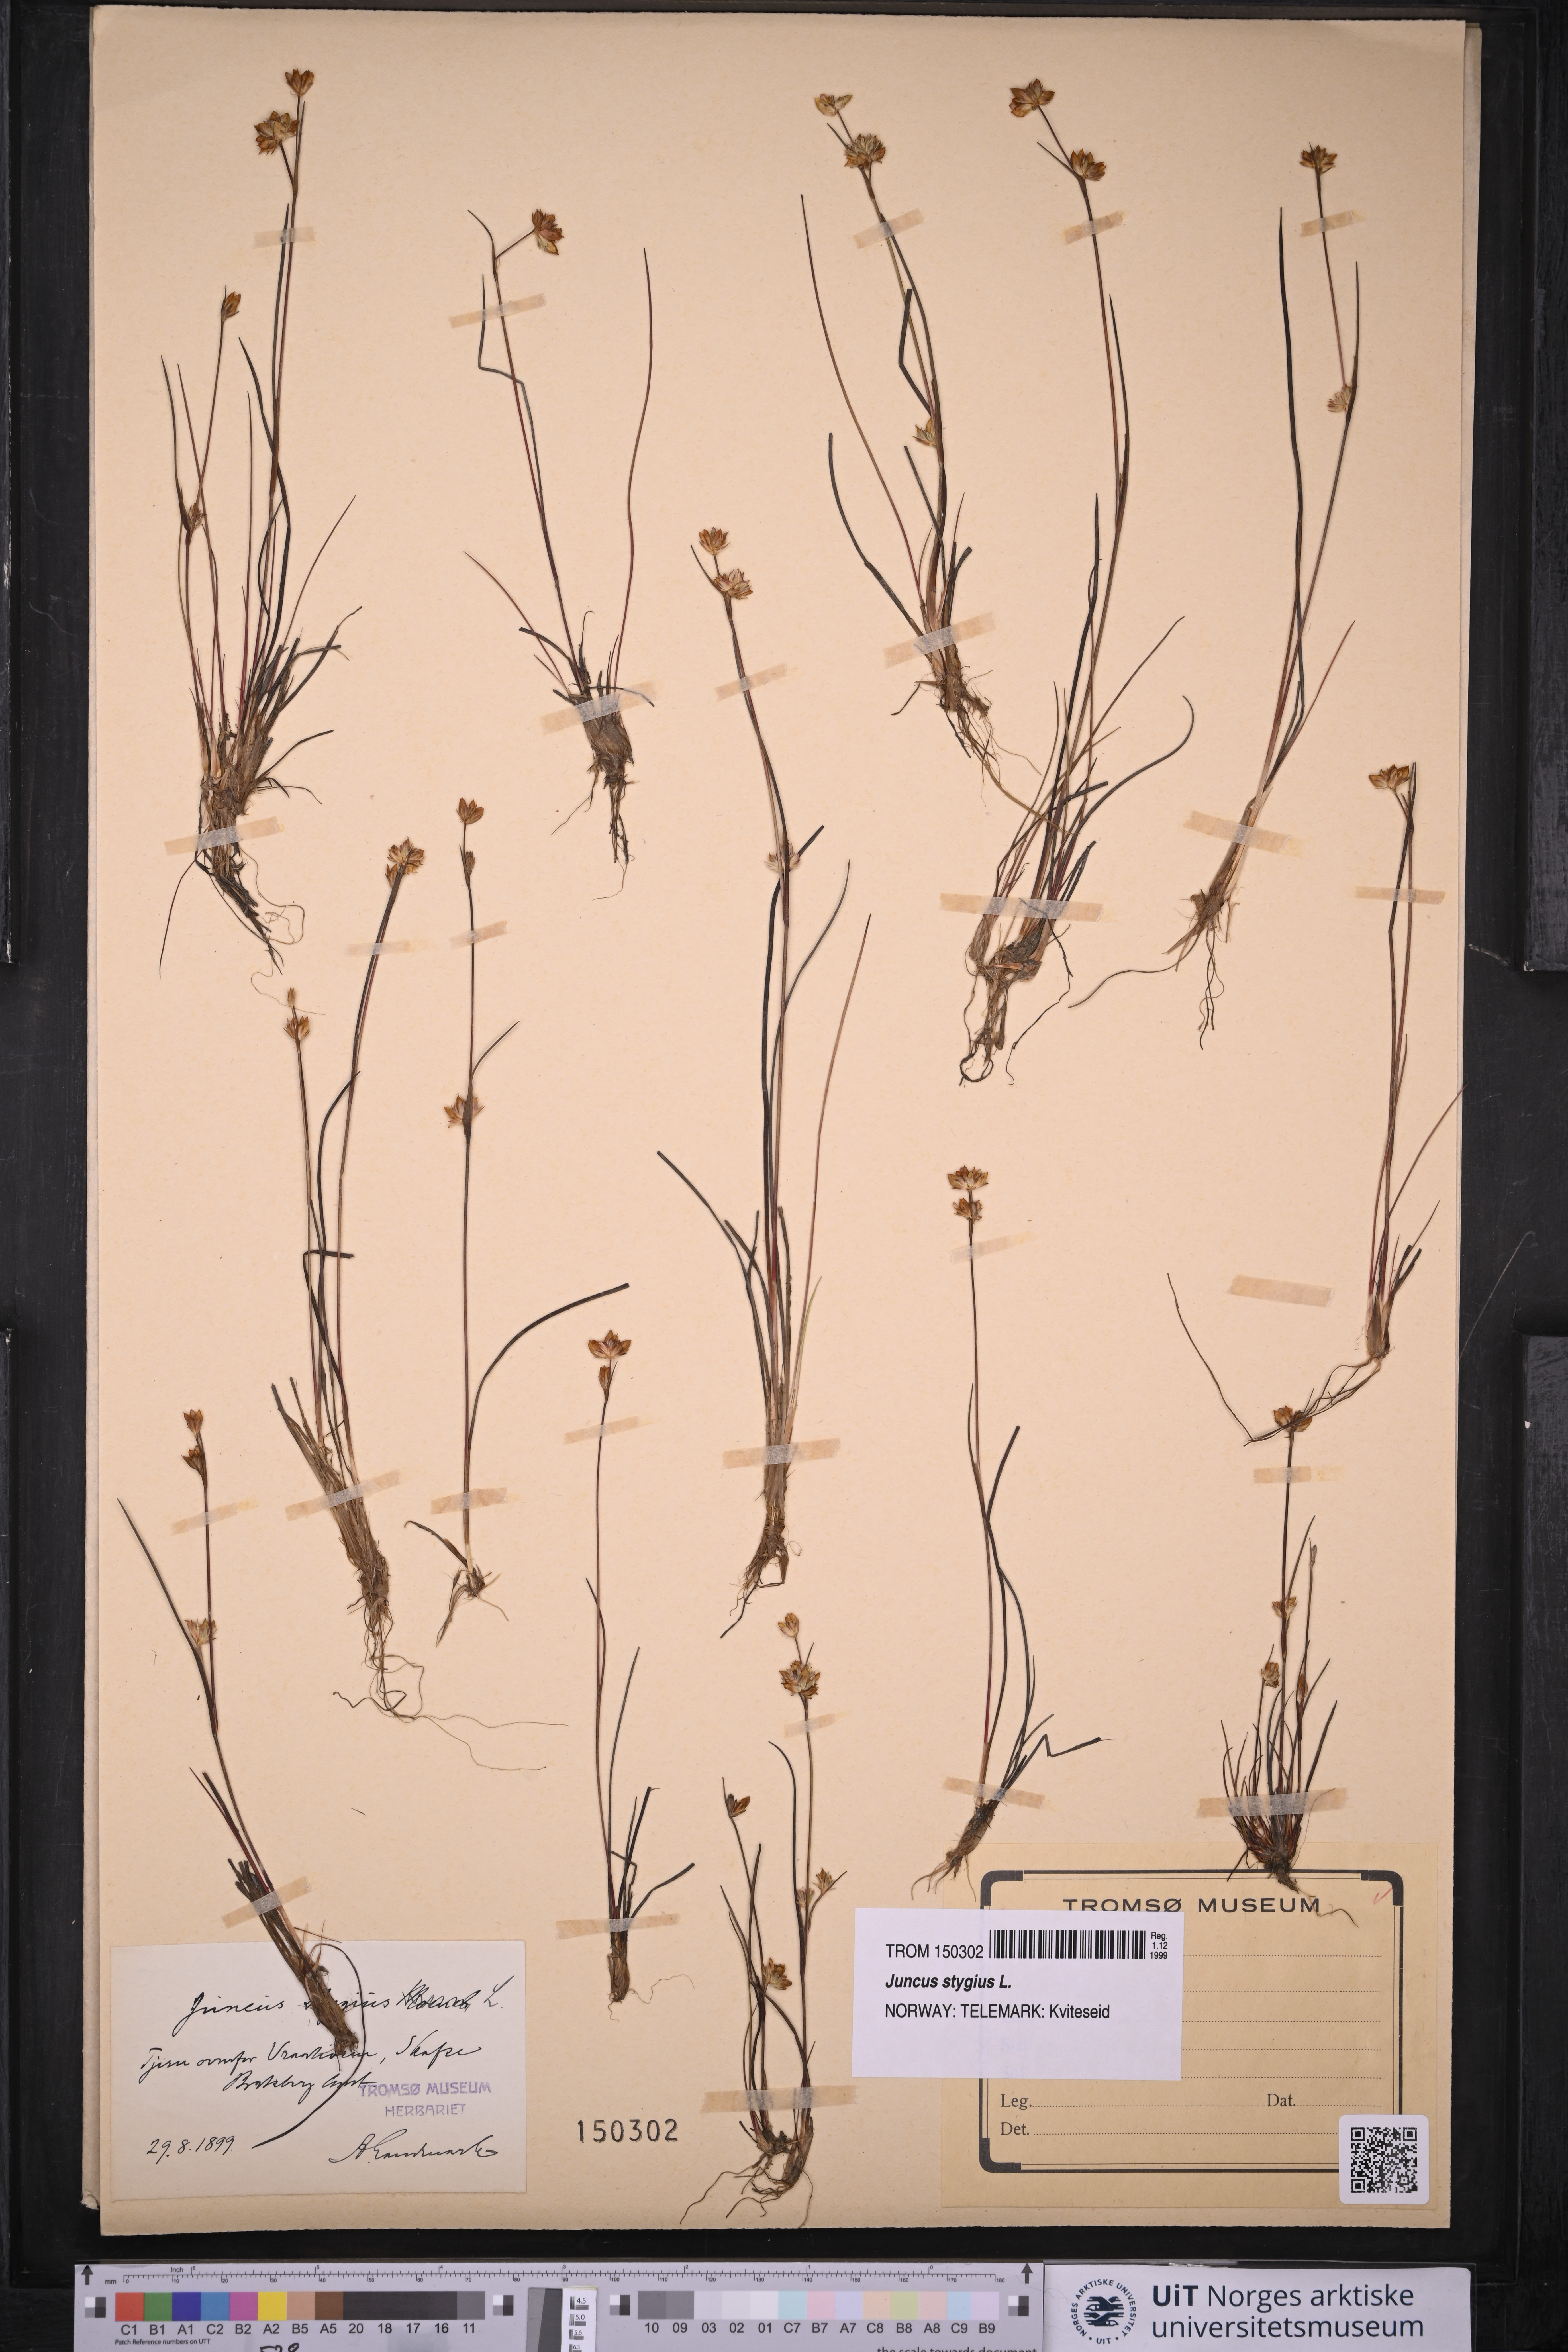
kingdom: Plantae
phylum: Tracheophyta
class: Liliopsida
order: Poales
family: Juncaceae
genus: Juncus
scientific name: Juncus stygius
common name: Bog rush
